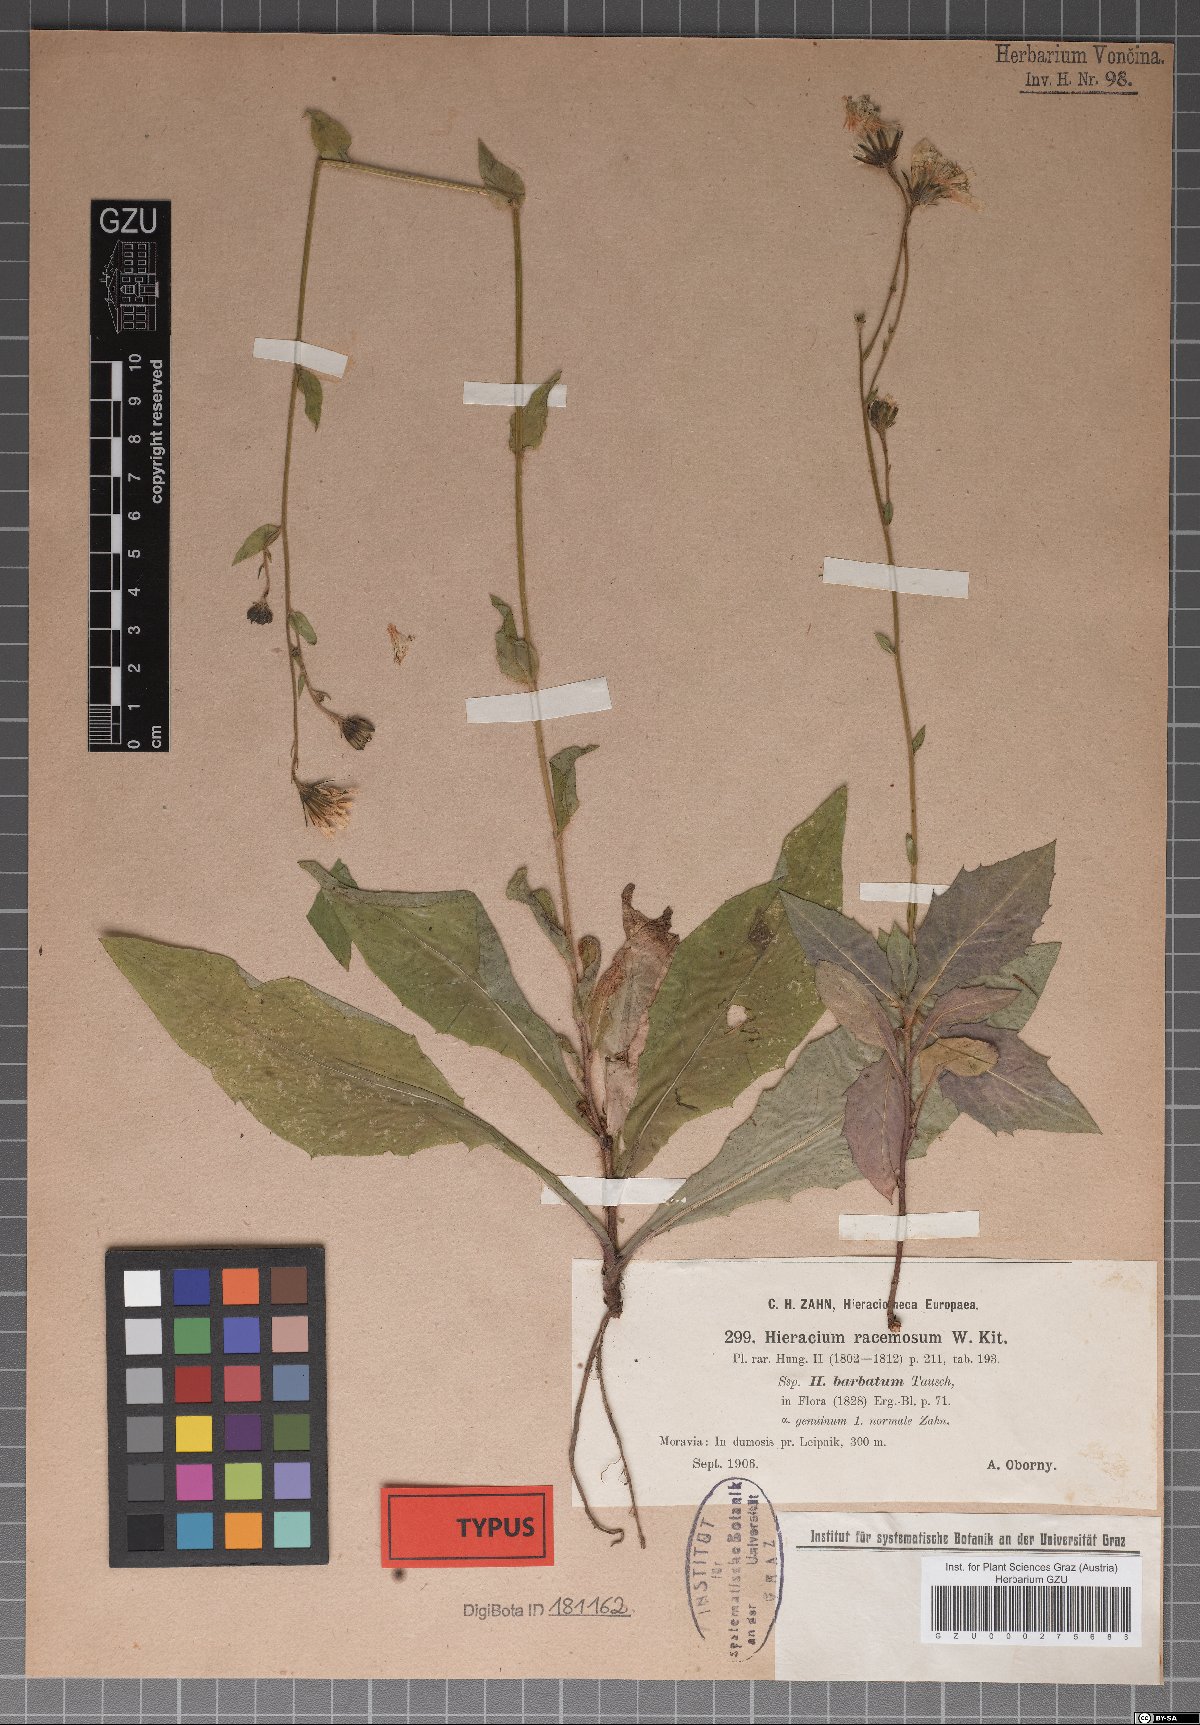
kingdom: Plantae
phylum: Tracheophyta
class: Magnoliopsida
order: Asterales
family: Asteraceae
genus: Hieracium
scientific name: Hieracium racemosum
